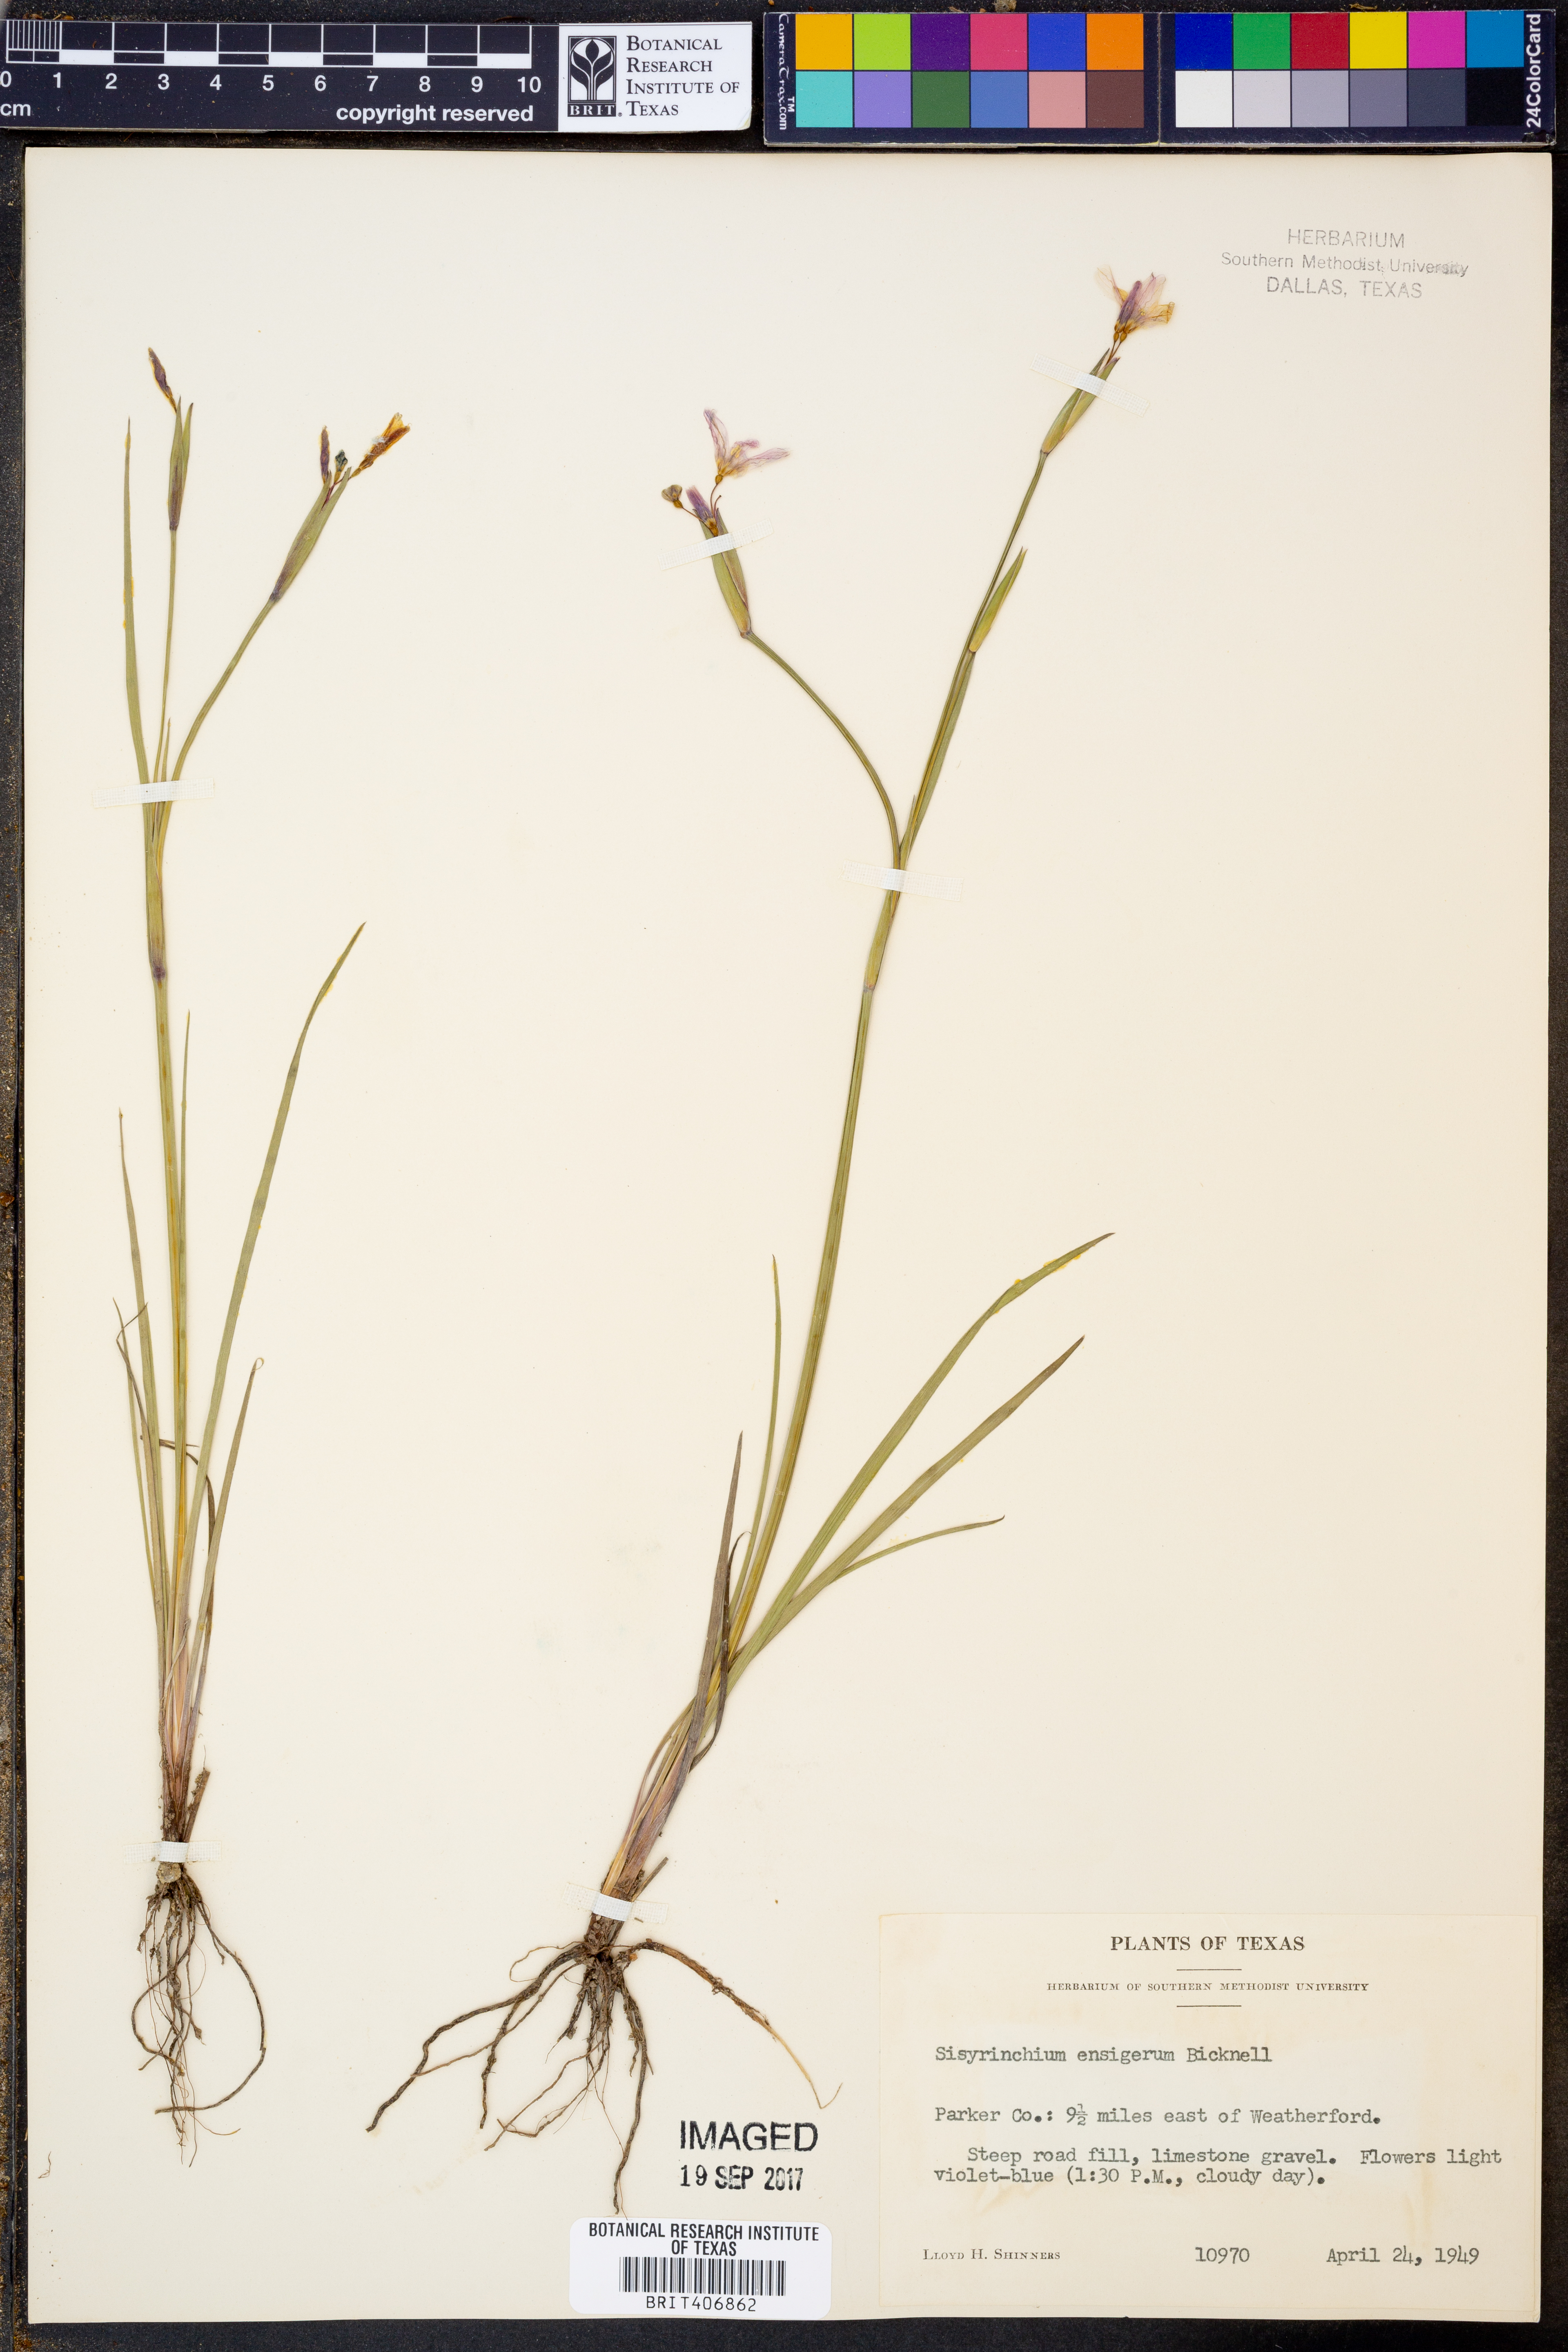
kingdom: Plantae
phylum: Tracheophyta
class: Liliopsida
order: Asparagales
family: Iridaceae
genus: Sisyrinchium
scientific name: Sisyrinchium ensigerum
